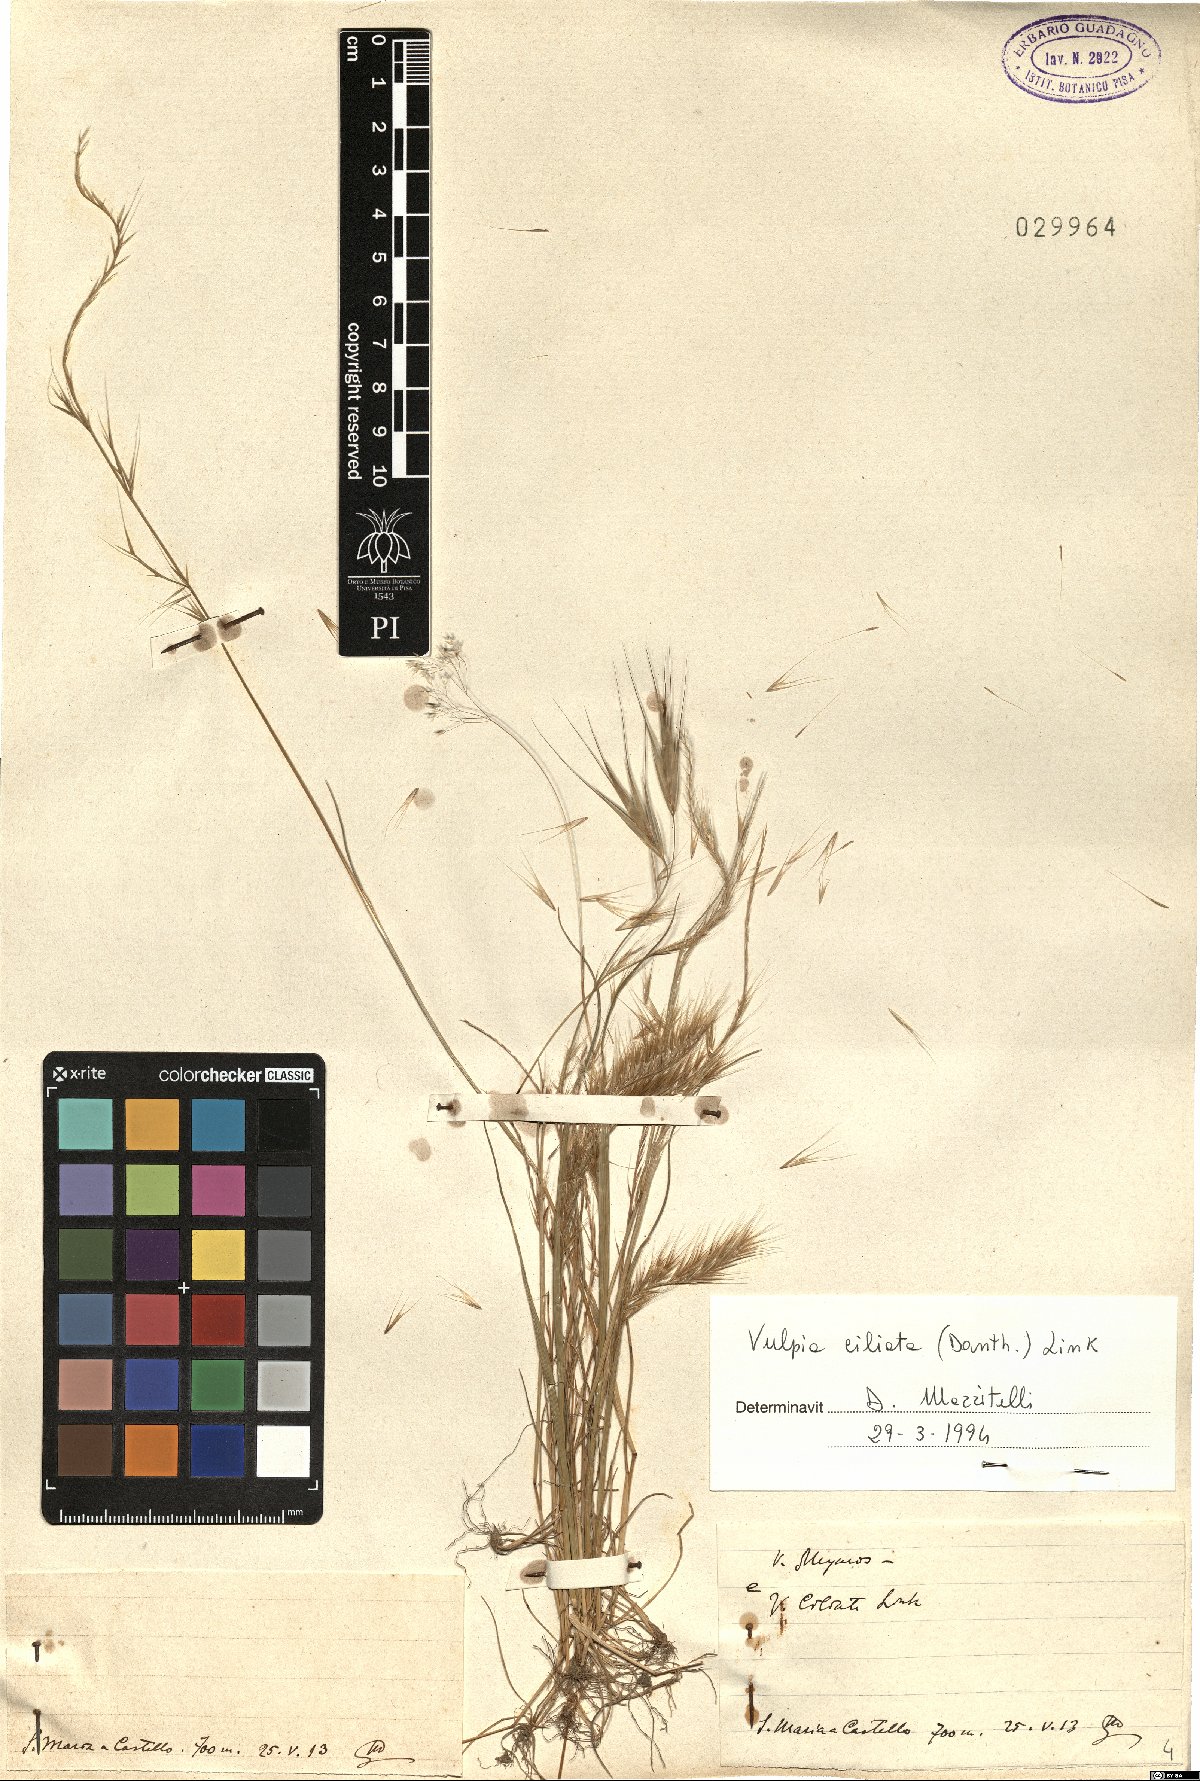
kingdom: Plantae
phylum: Tracheophyta
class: Liliopsida
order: Poales
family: Poaceae
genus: Festuca
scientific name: Festuca ambigua
